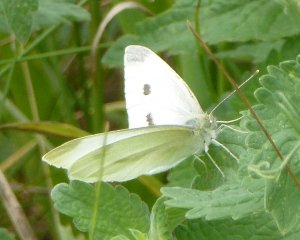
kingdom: Animalia
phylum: Arthropoda
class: Insecta
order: Lepidoptera
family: Pieridae
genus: Pieris
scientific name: Pieris rapae
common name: Cabbage White
